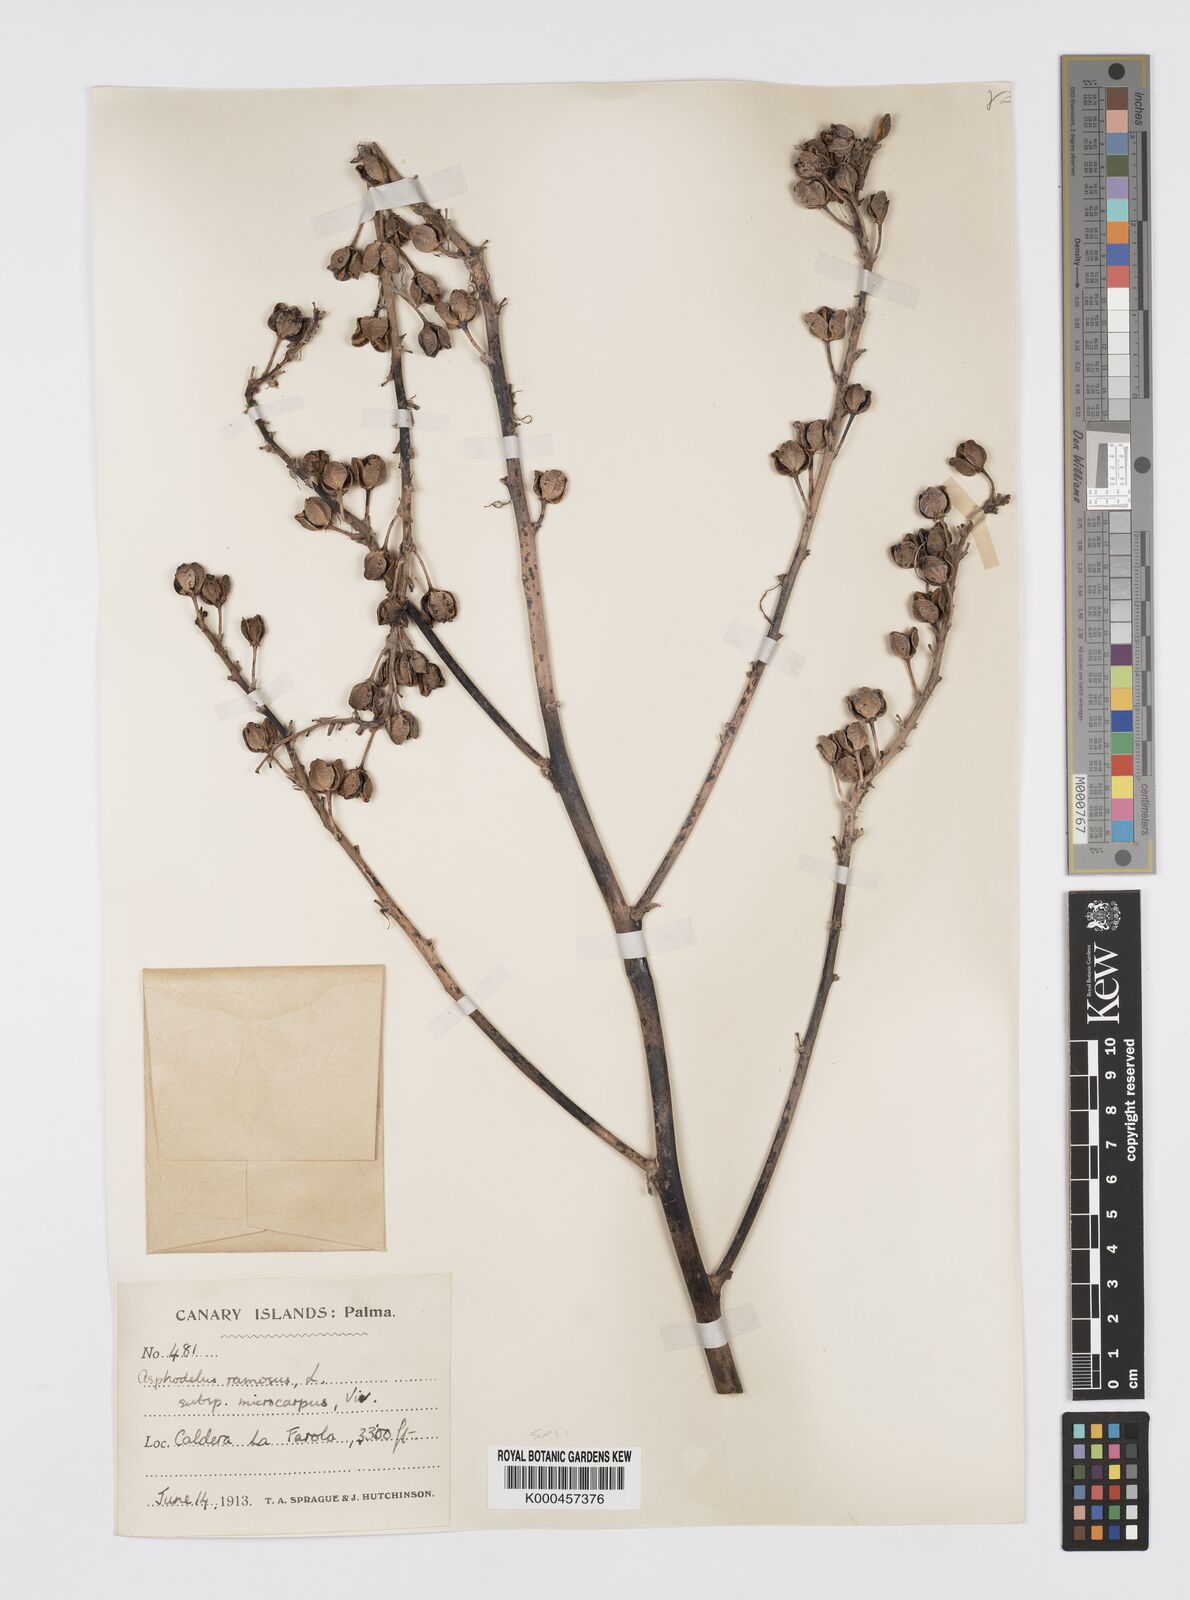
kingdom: Plantae
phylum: Tracheophyta
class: Liliopsida
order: Asparagales
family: Asphodelaceae
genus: Asphodelus
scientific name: Asphodelus aestivus
